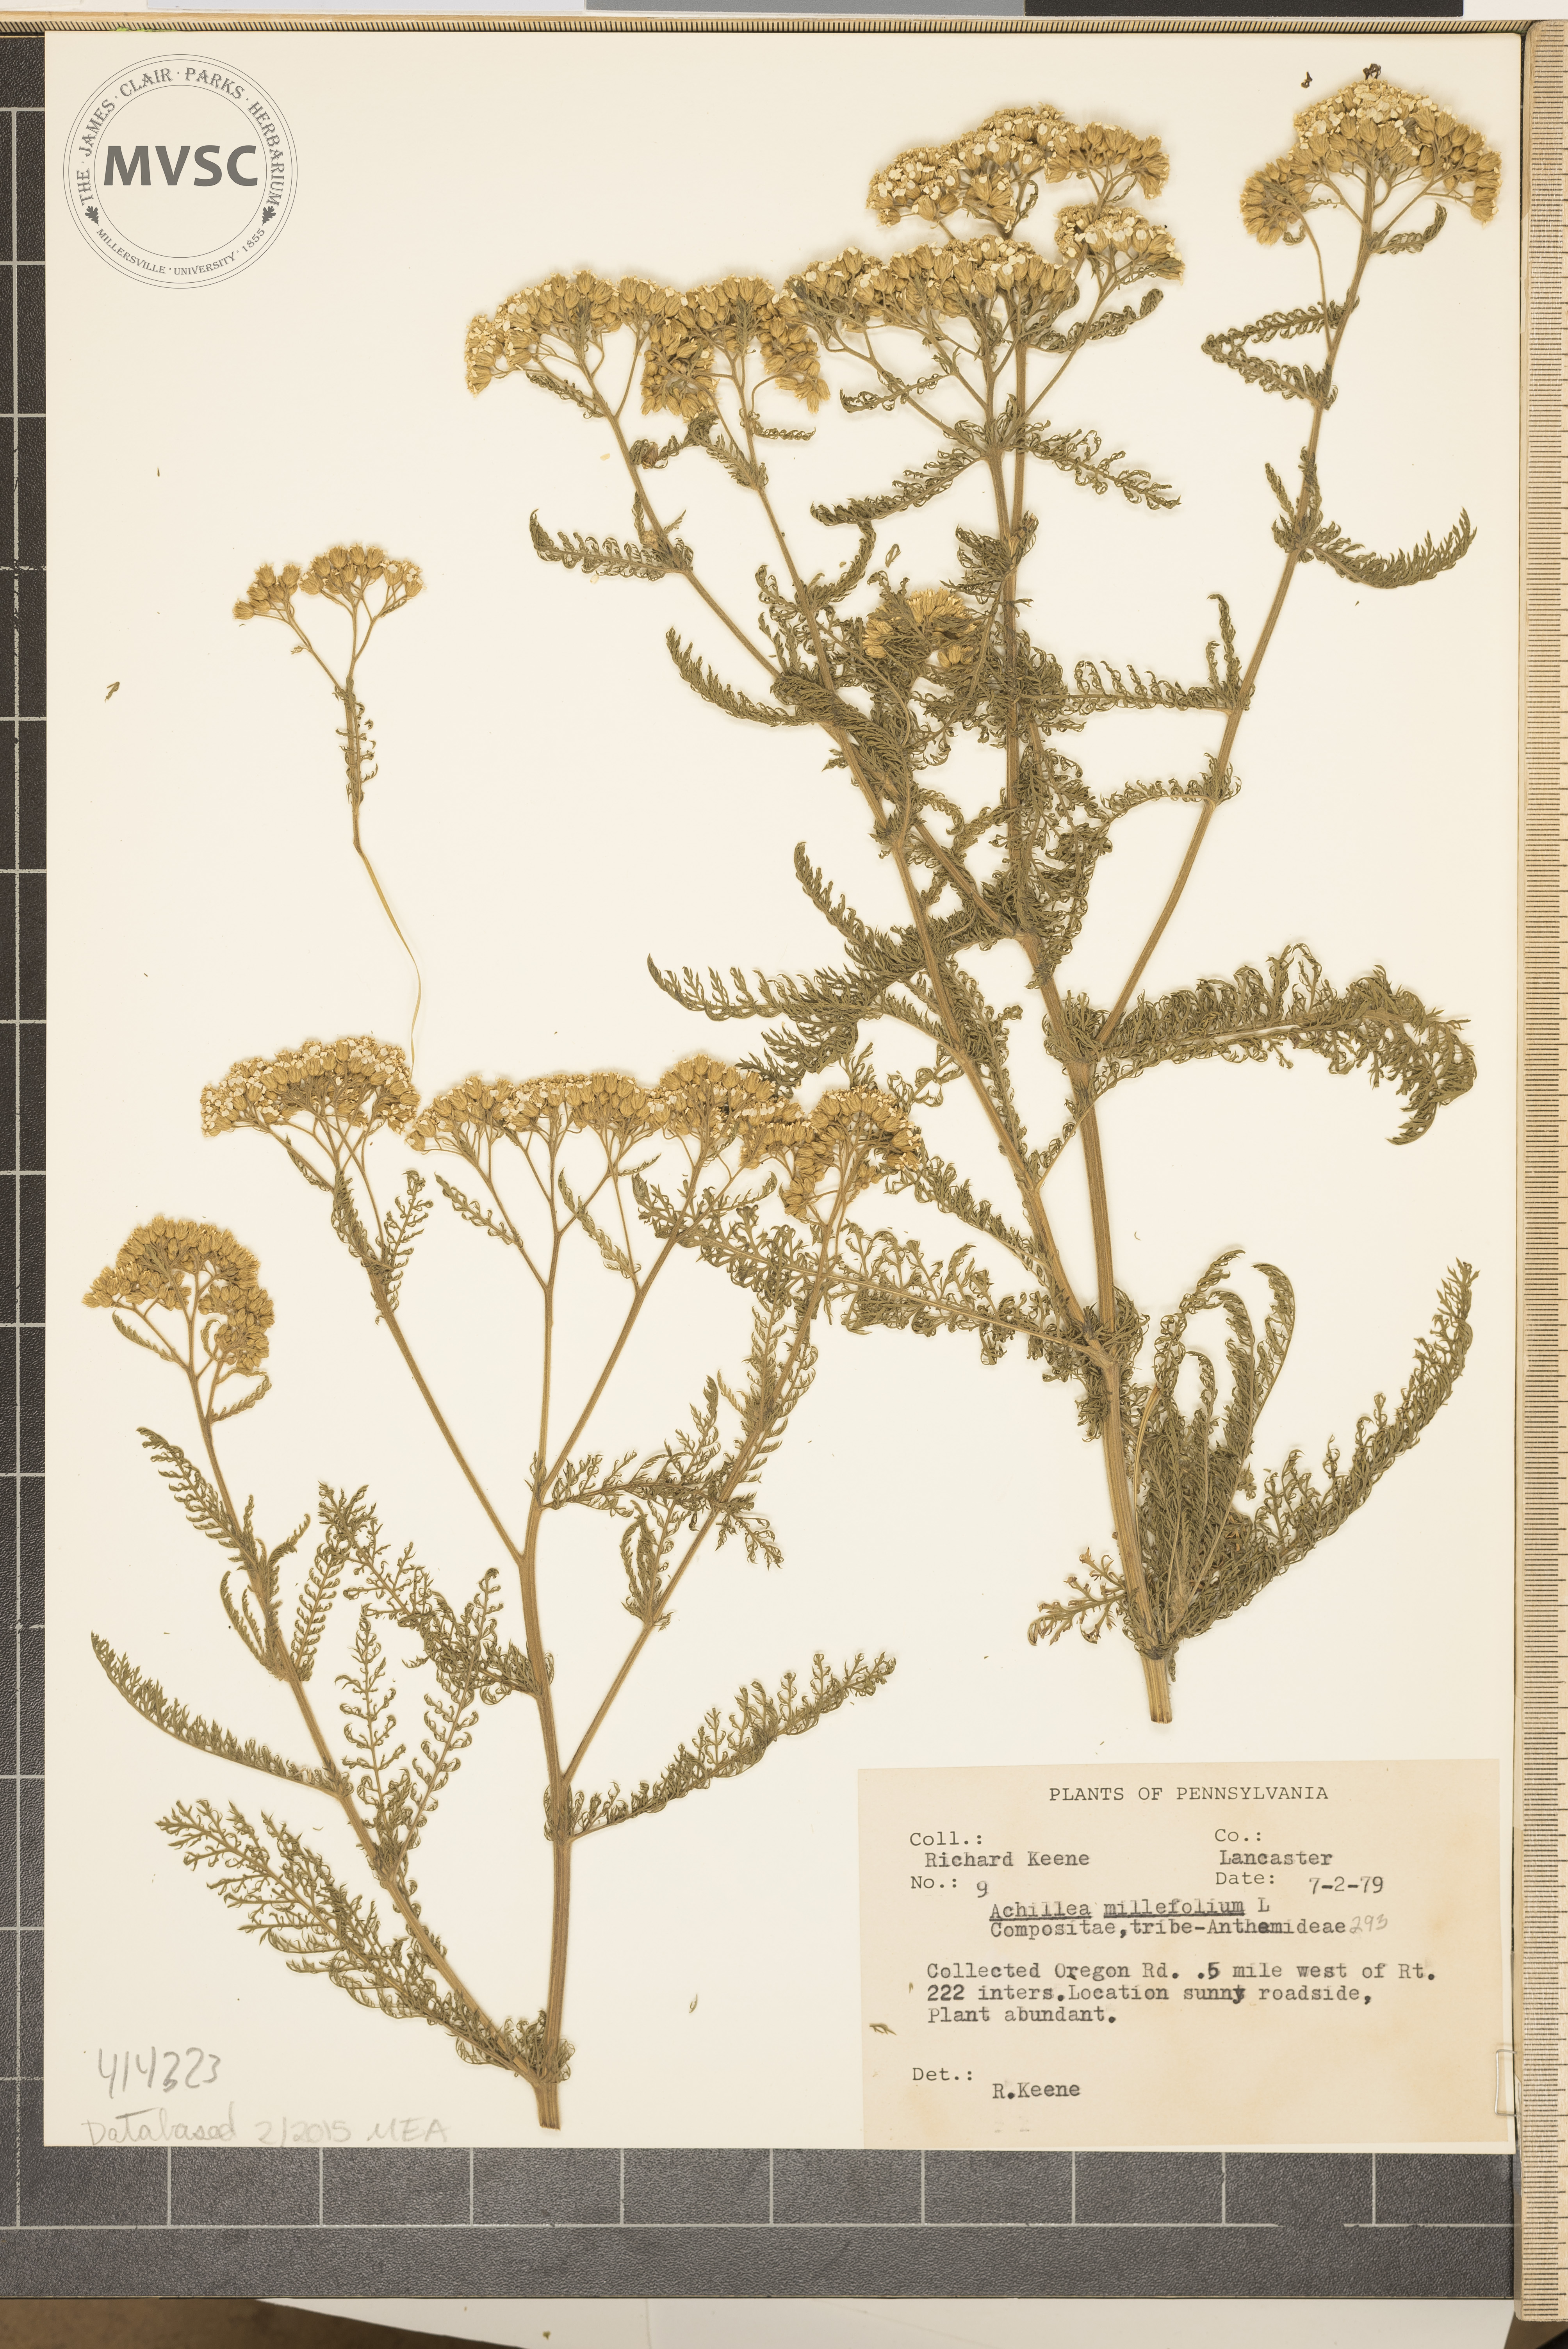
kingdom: Plantae
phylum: Tracheophyta
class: Magnoliopsida
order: Asterales
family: Asteraceae
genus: Achillea
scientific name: Achillea millefolium
